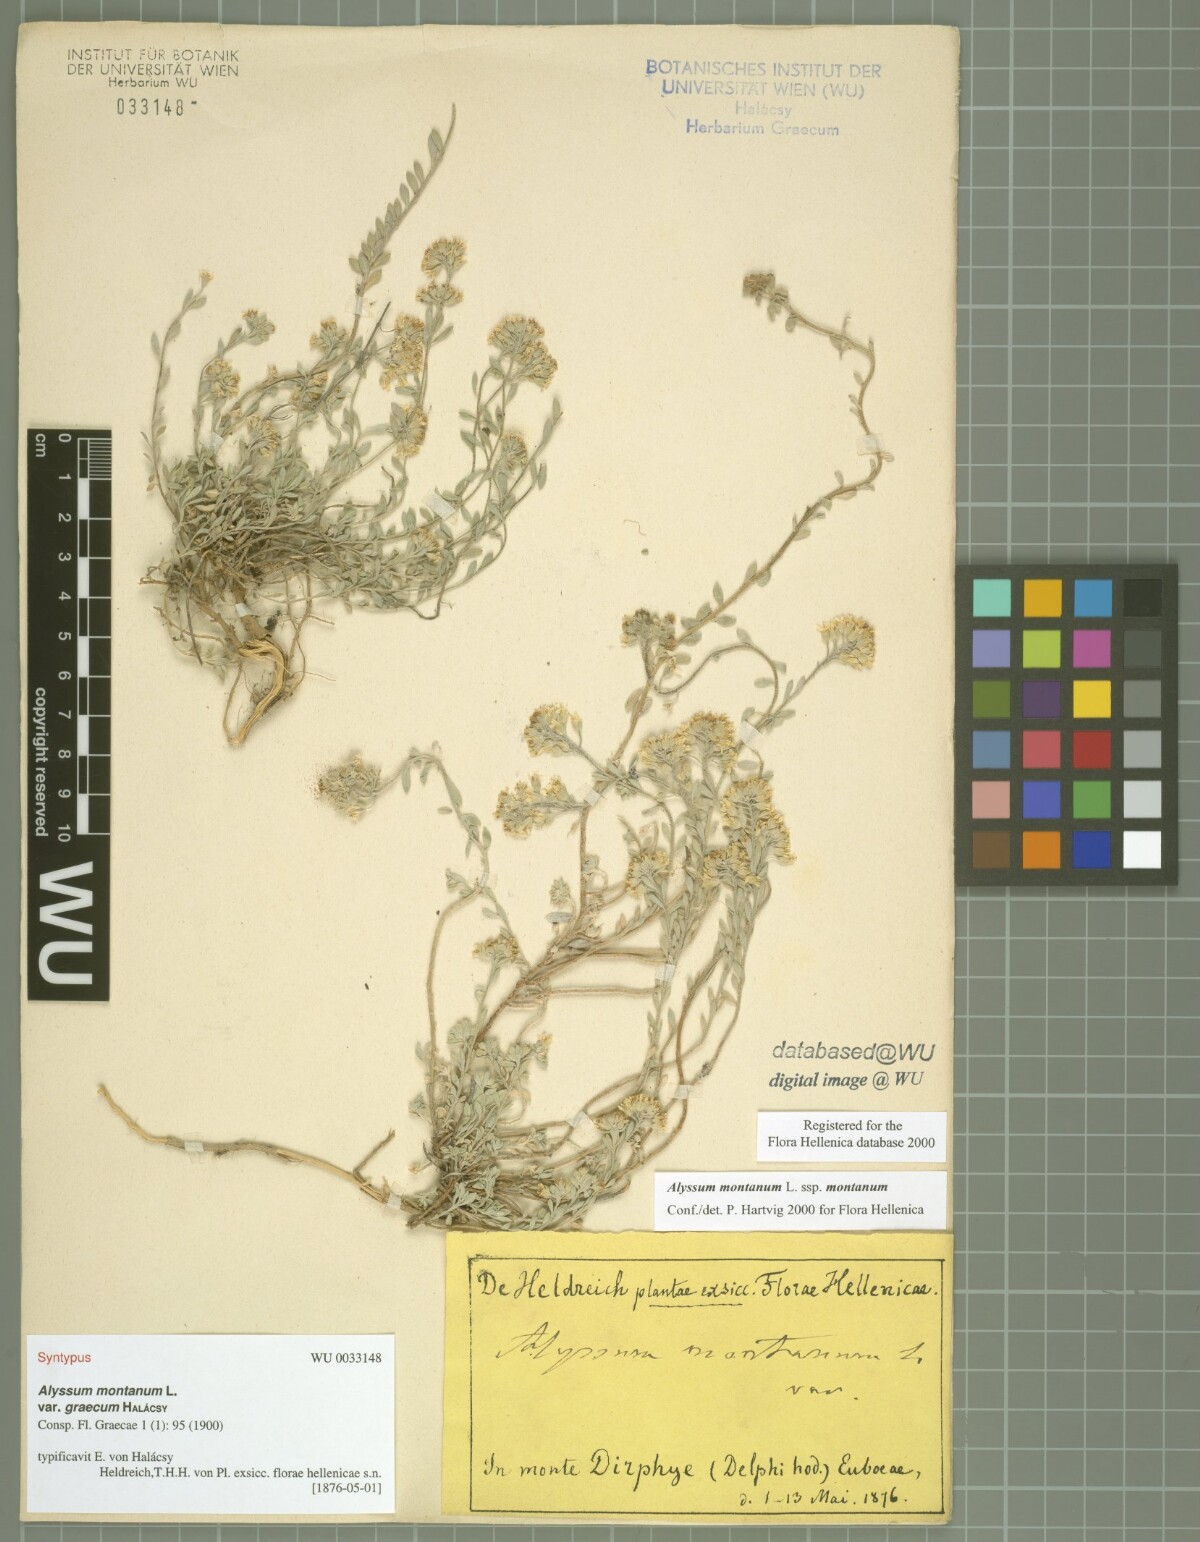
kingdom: Plantae
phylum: Tracheophyta
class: Magnoliopsida
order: Brassicales
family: Brassicaceae
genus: Alyssum
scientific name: Alyssum montanum
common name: Mountain alison
